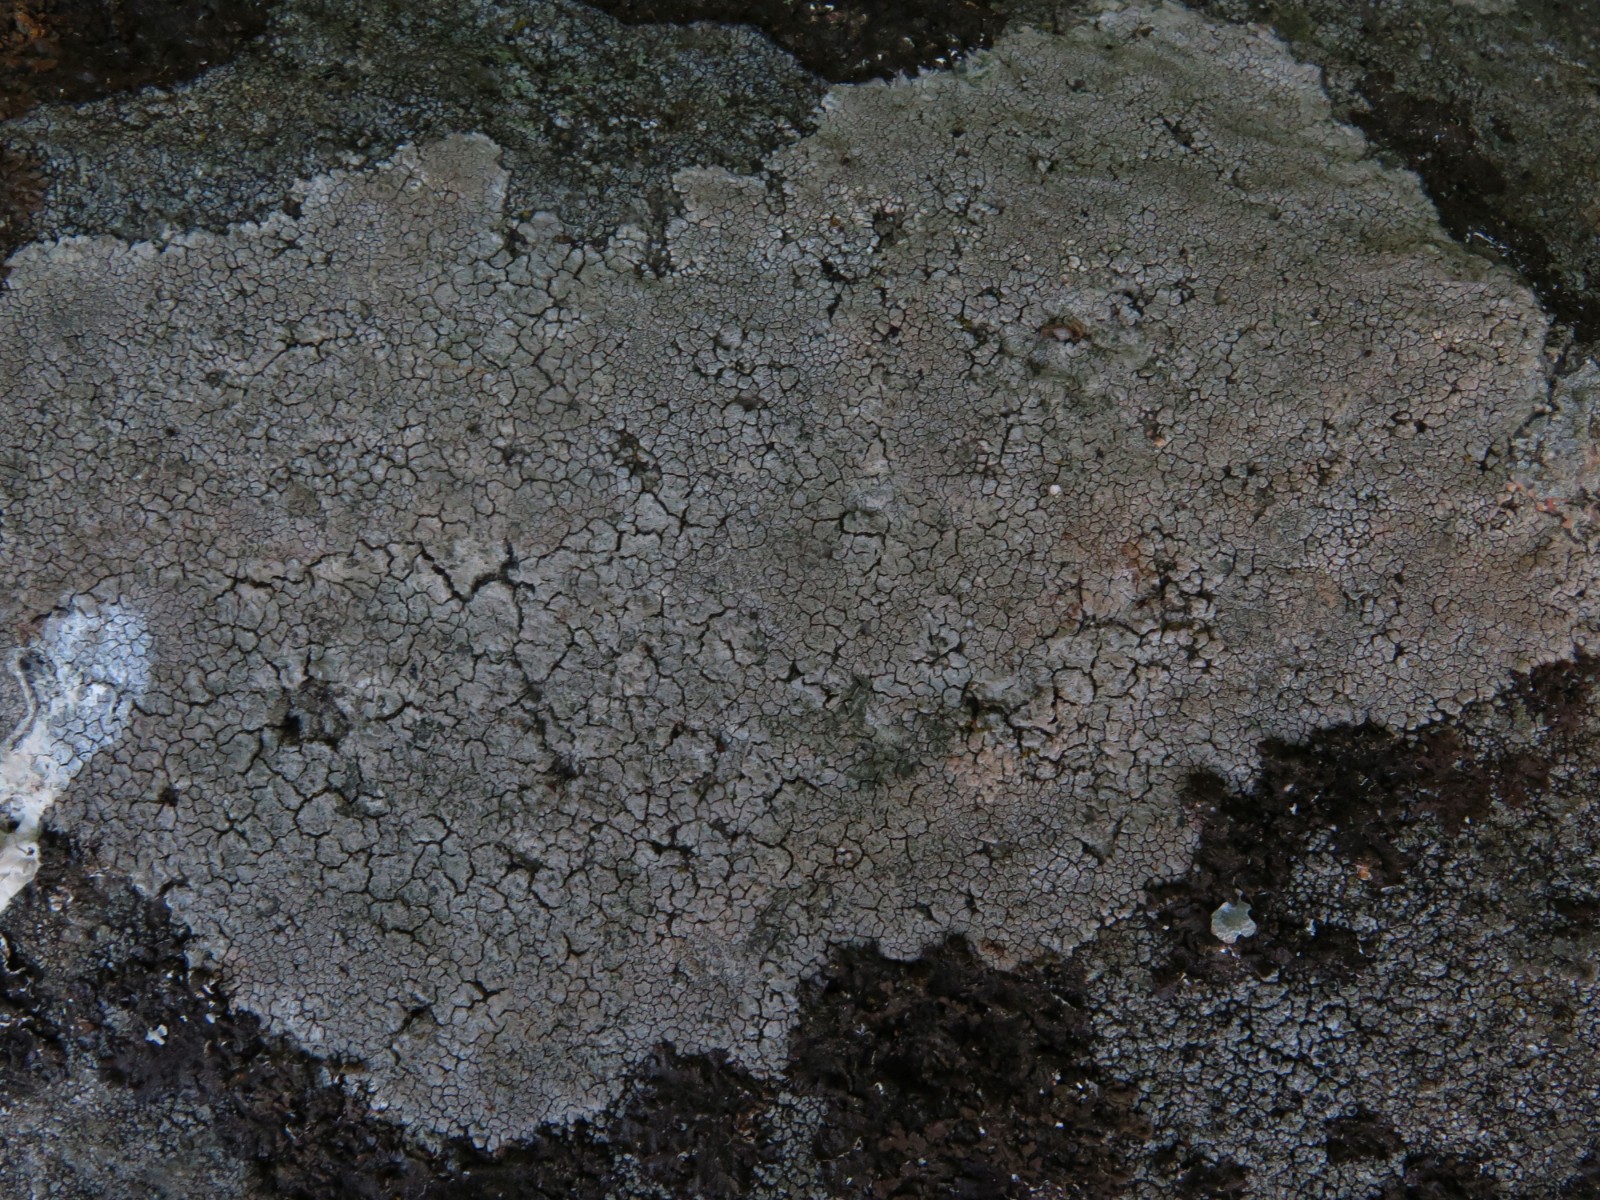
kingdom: Fungi
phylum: Ascomycota
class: Lecanoromycetes
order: Lecideales
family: Lecideaceae
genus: Lecidea
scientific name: Lecidea fuscoatra
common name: rudret skivelav
